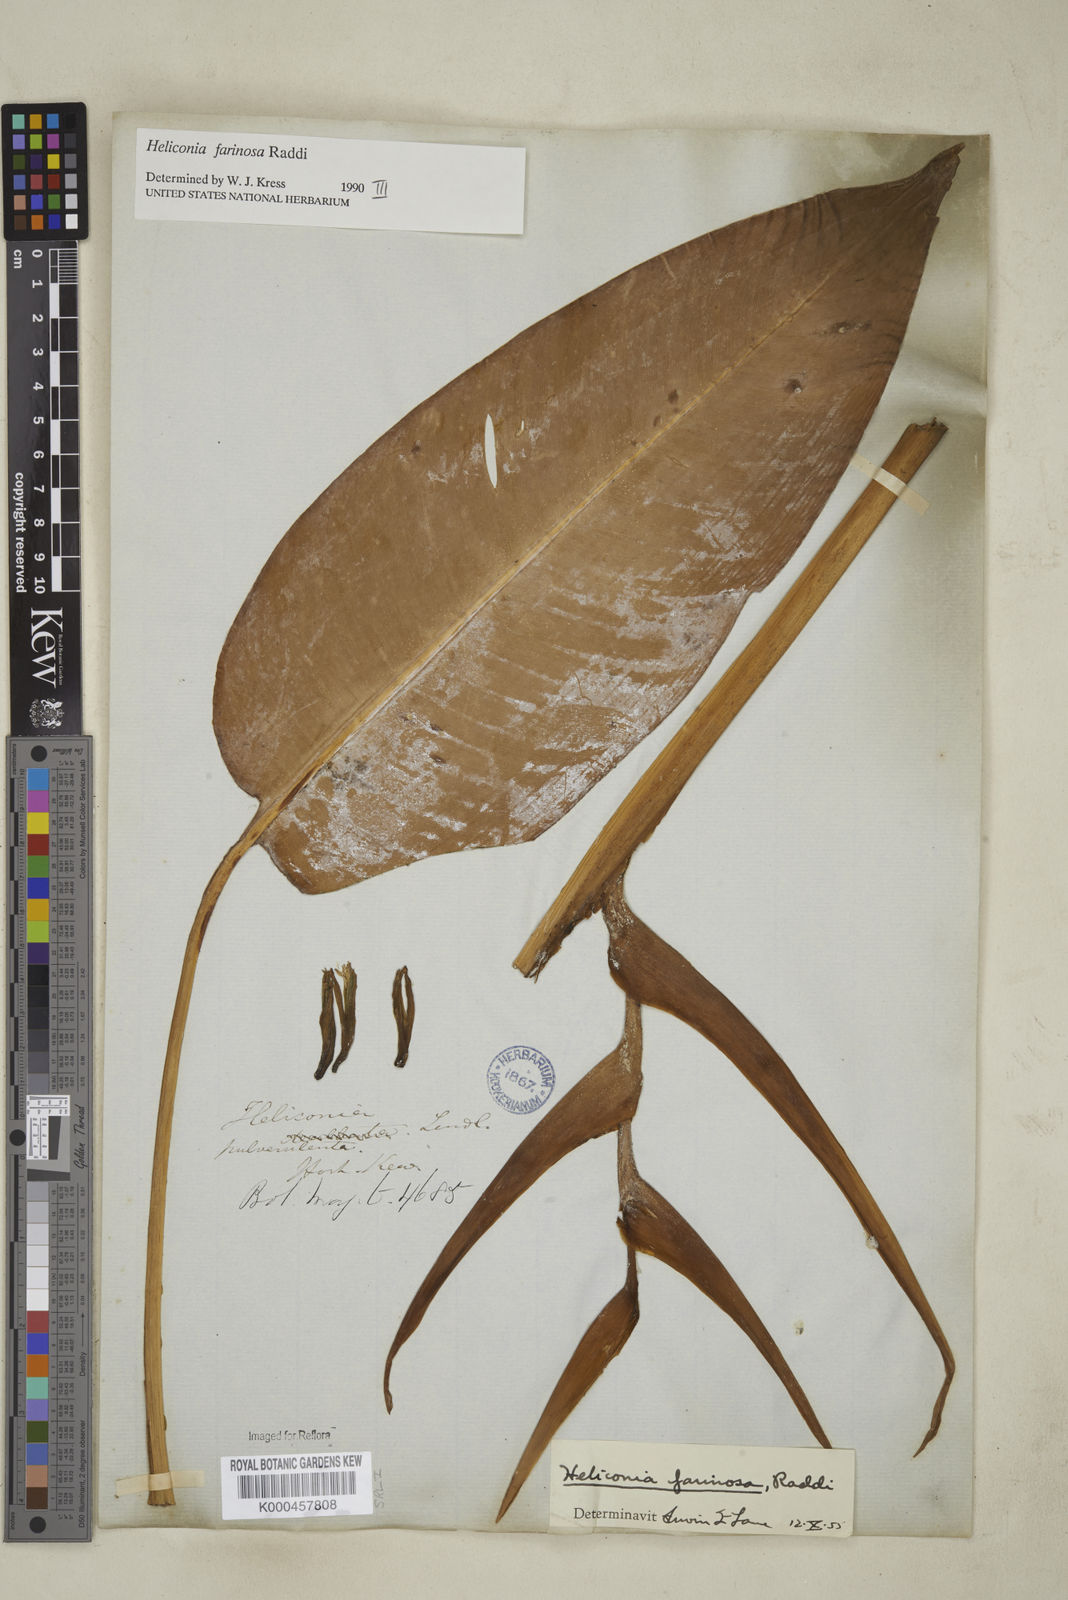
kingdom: Plantae
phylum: Tracheophyta
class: Liliopsida
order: Zingiberales
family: Heliconiaceae
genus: Heliconia
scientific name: Heliconia farinosa
